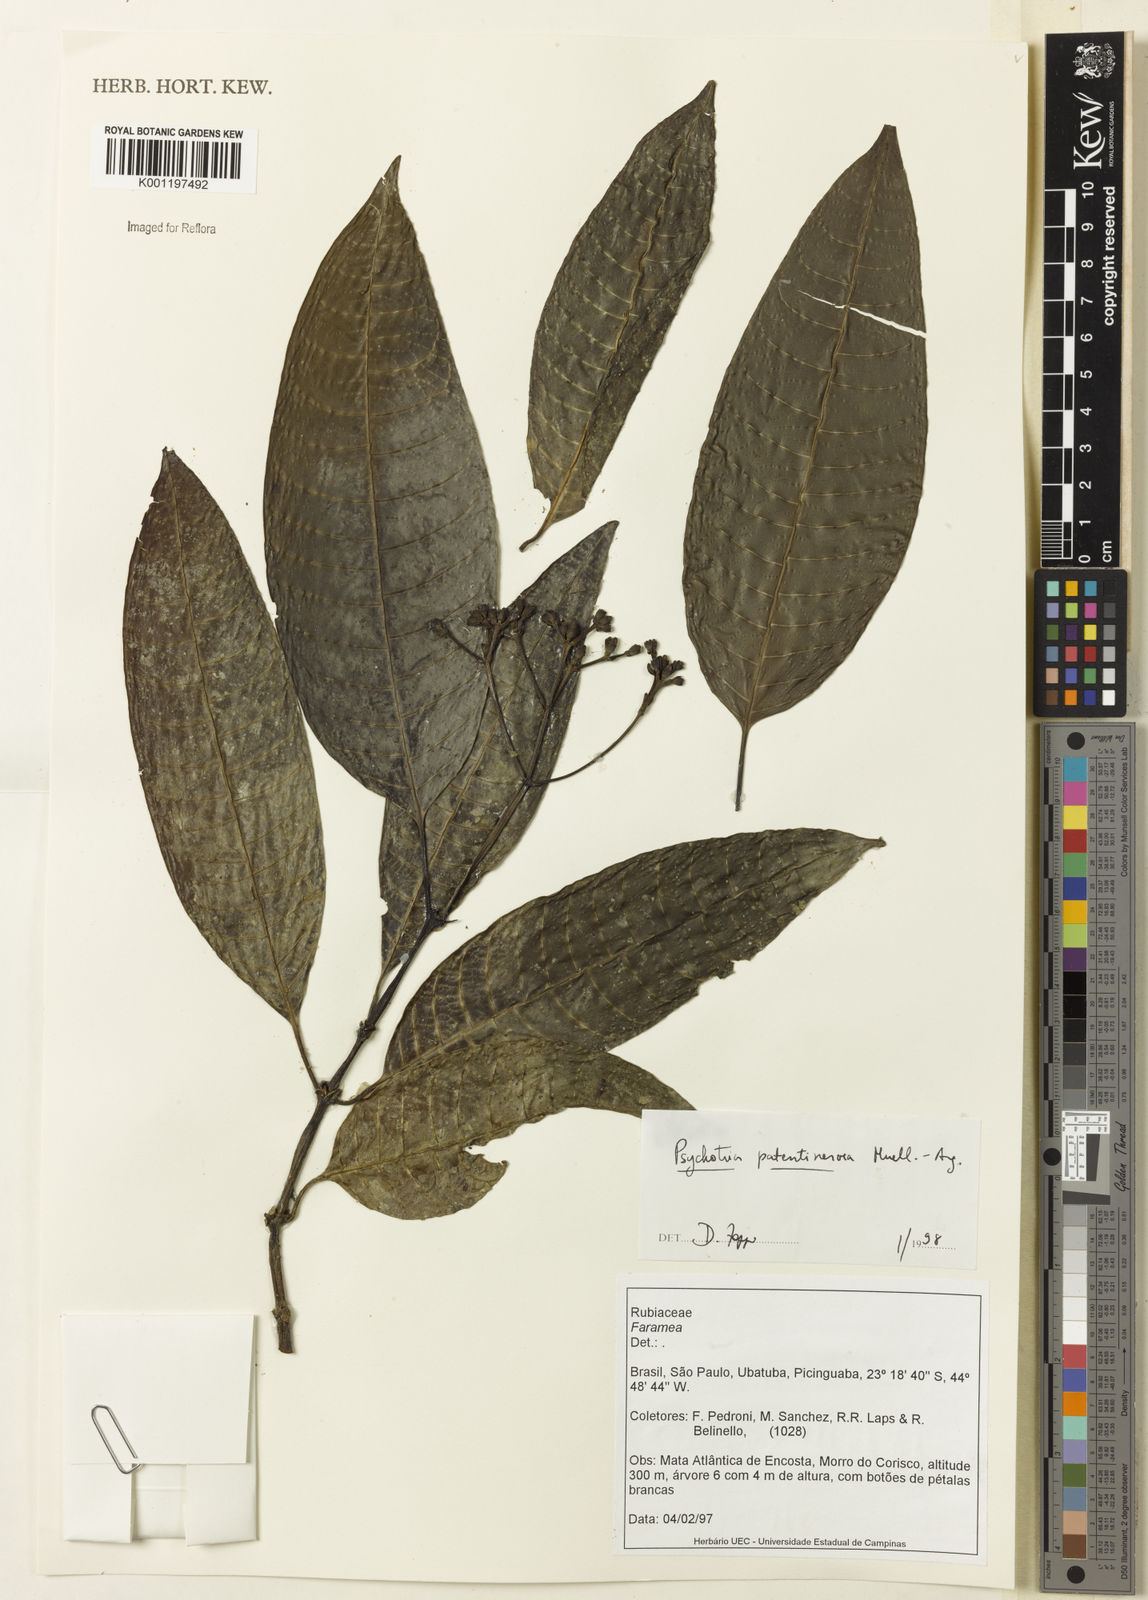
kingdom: Plantae
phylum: Tracheophyta
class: Magnoliopsida
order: Gentianales
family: Rubiaceae
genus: Psychotria
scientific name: Psychotria
